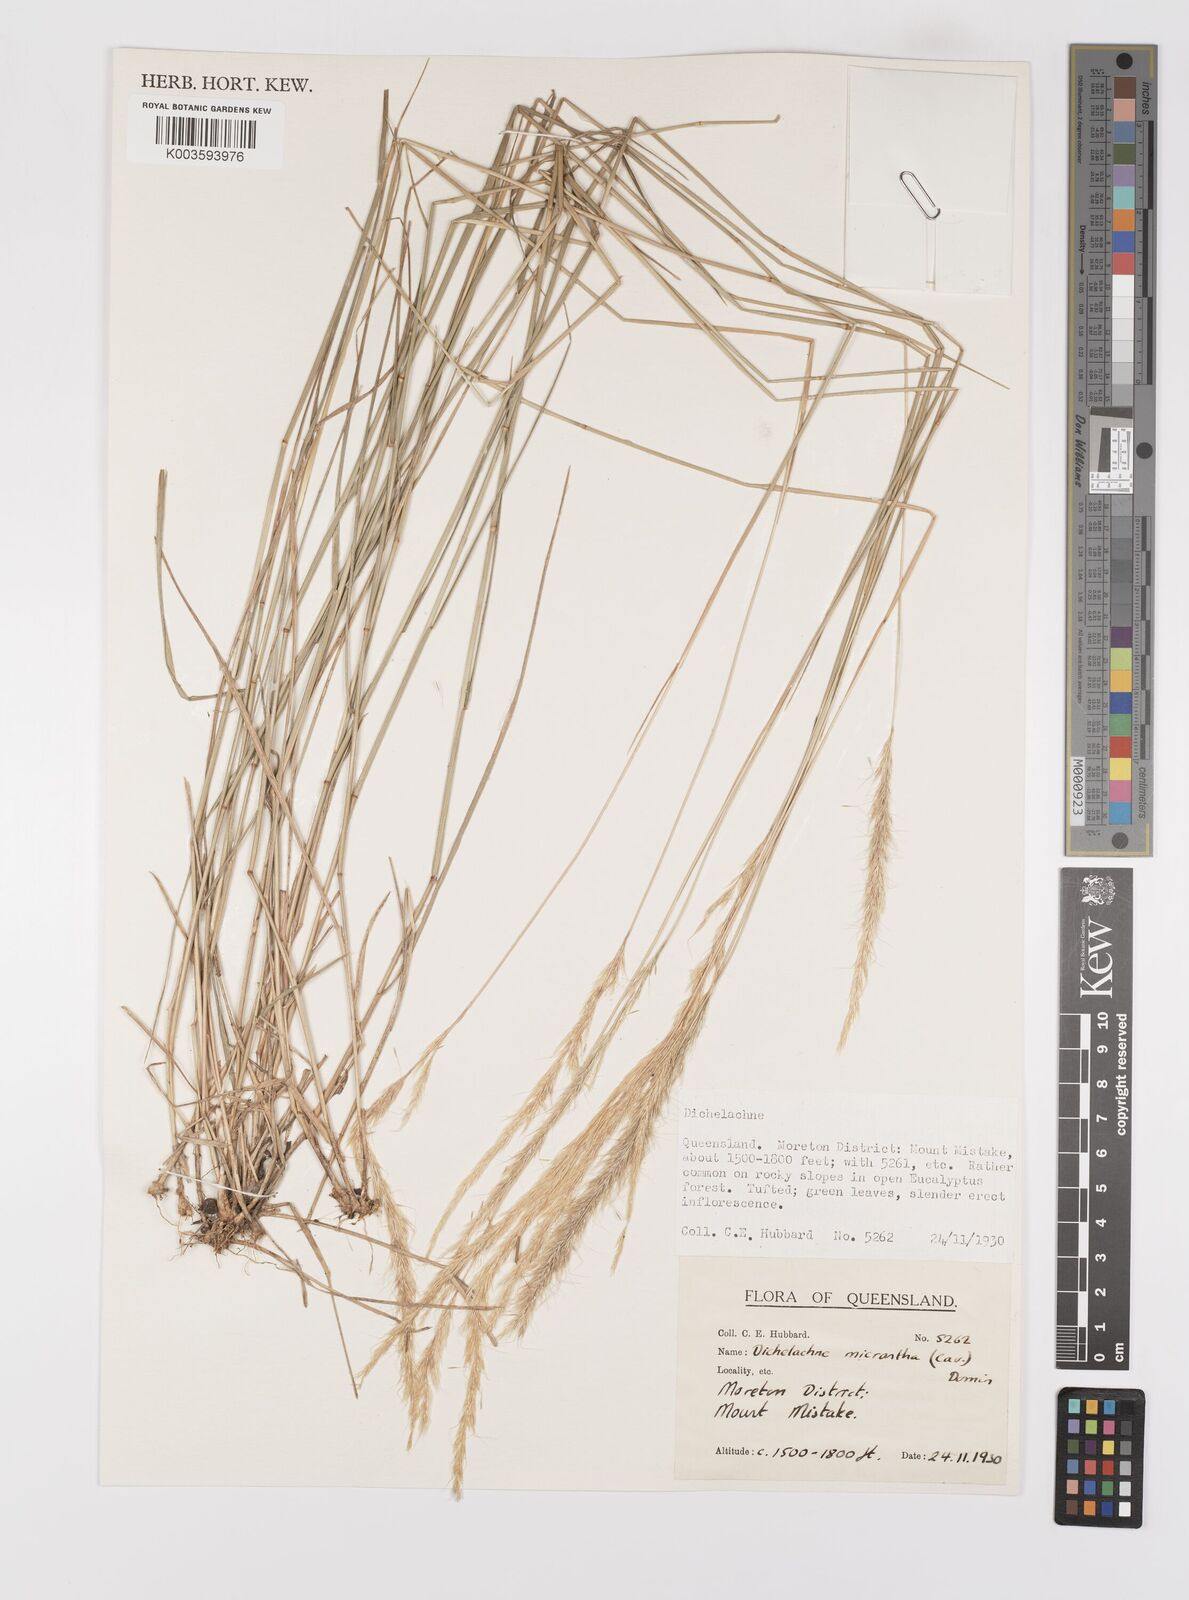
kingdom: Plantae
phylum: Tracheophyta
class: Liliopsida
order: Poales
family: Poaceae
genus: Dichelachne
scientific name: Dichelachne micrantha
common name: Plumegrass
